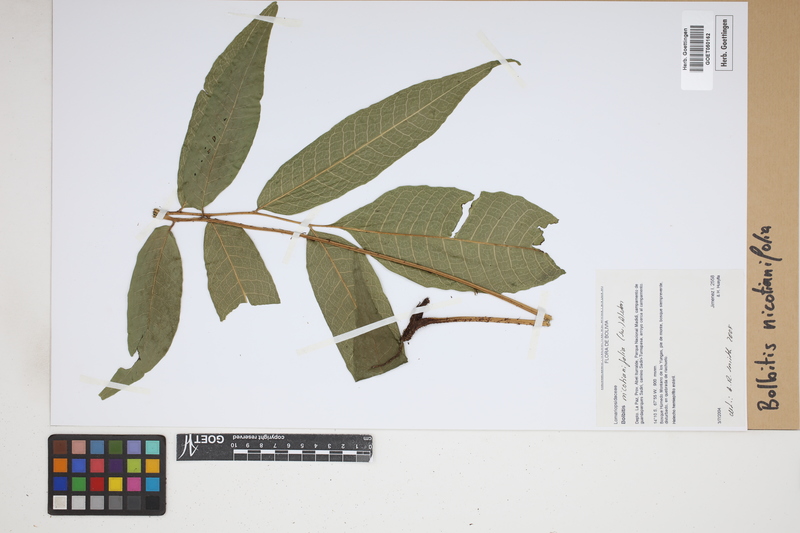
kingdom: Plantae
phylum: Tracheophyta
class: Polypodiopsida
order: Polypodiales
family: Dryopteridaceae
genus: Mickelia
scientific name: Mickelia nicotianifolia
